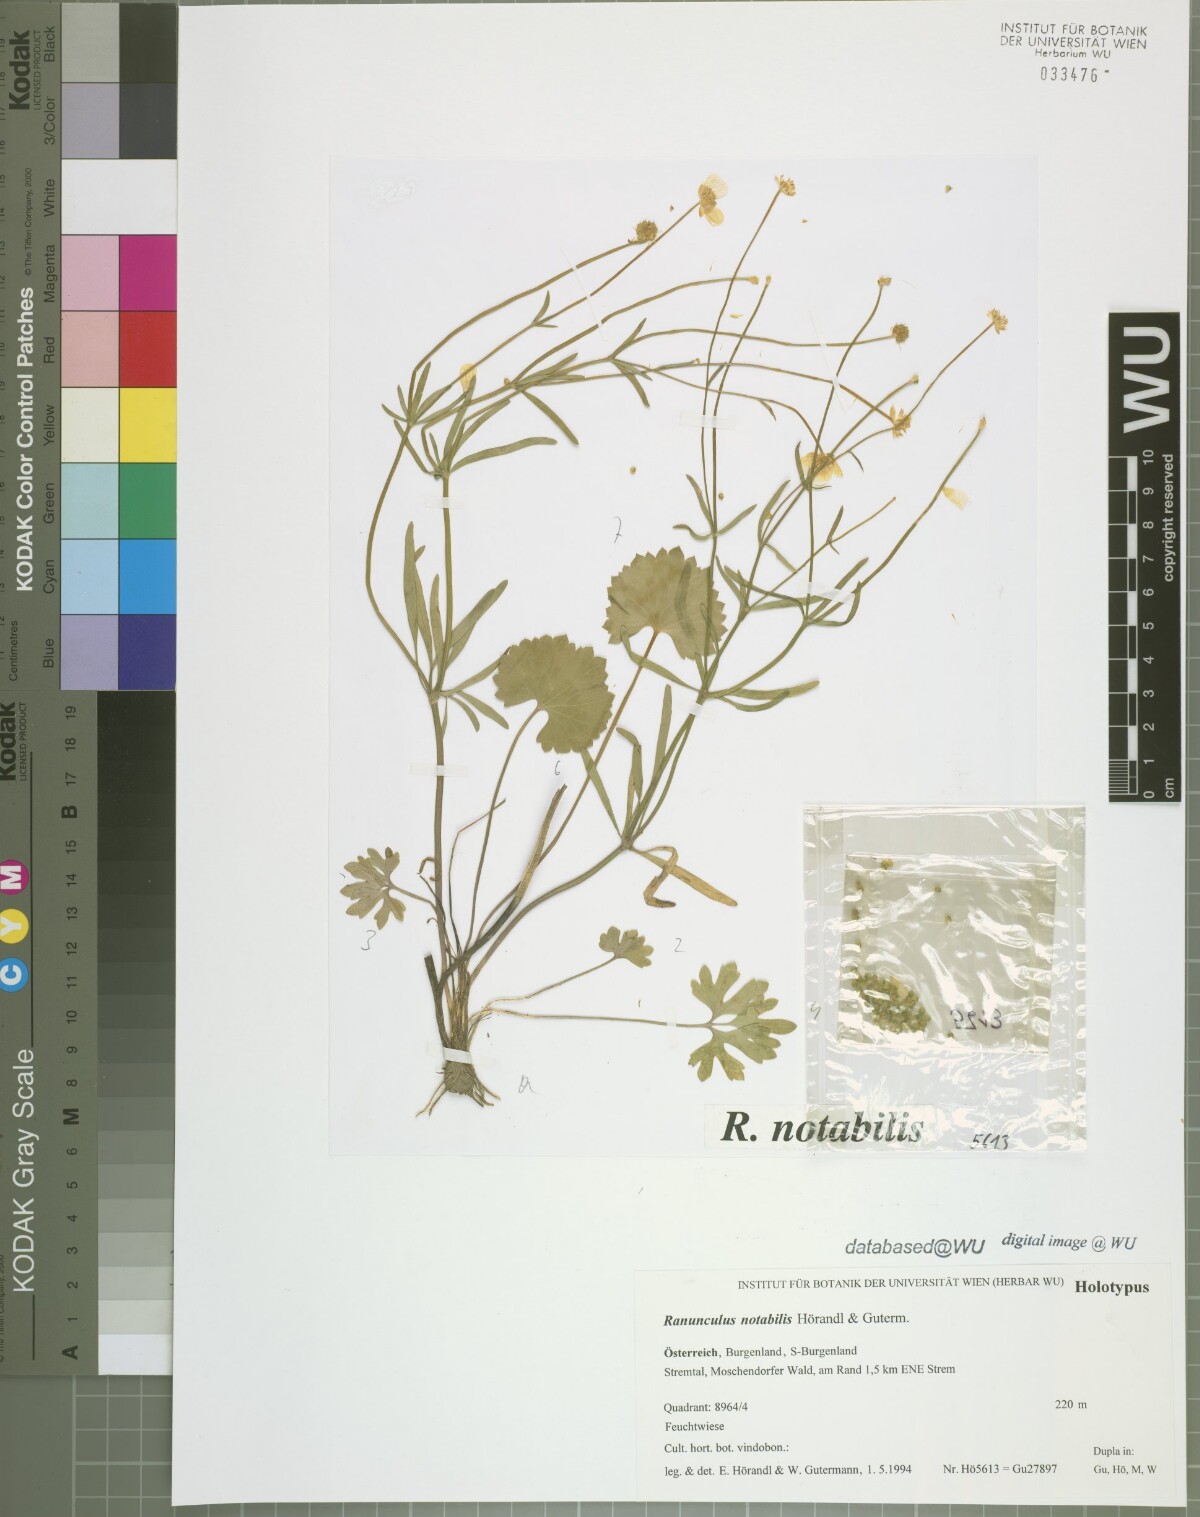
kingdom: Plantae
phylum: Tracheophyta
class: Magnoliopsida
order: Ranunculales
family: Ranunculaceae
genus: Ranunculus
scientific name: Ranunculus notabilis
